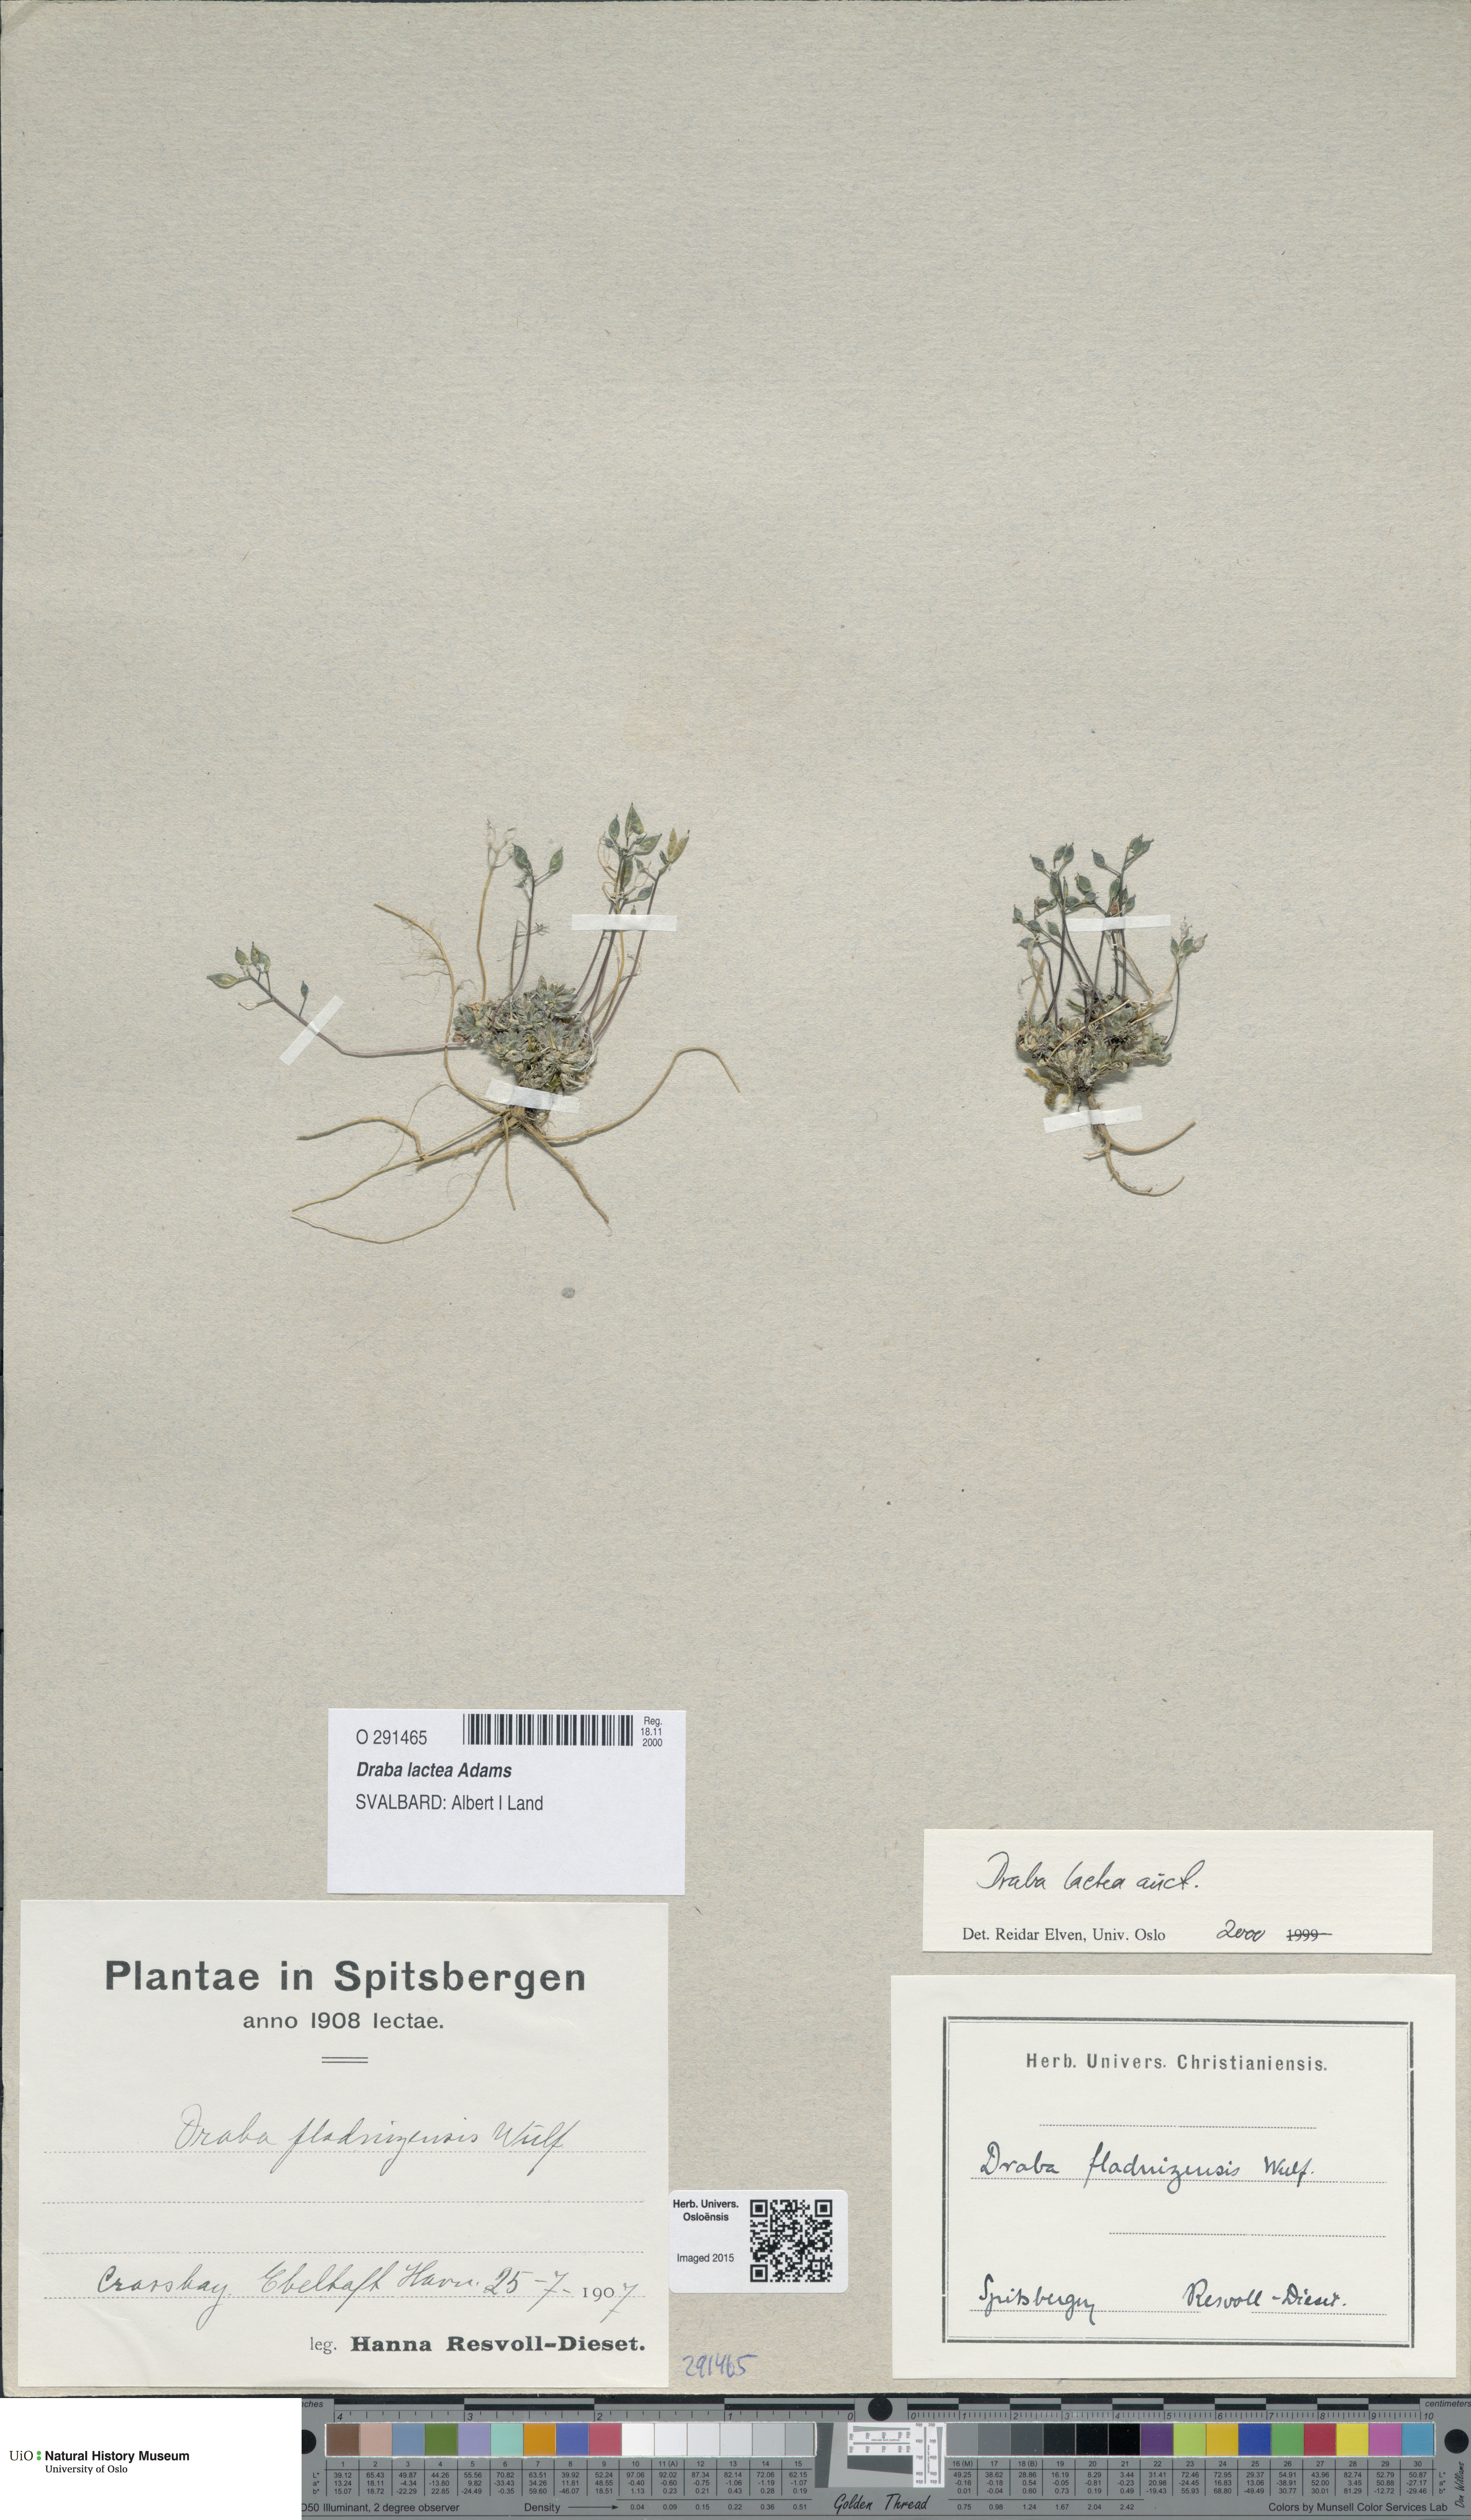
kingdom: Plantae
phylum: Tracheophyta
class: Magnoliopsida
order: Brassicales
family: Brassicaceae
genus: Draba
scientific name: Draba lactea
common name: Milky draba
